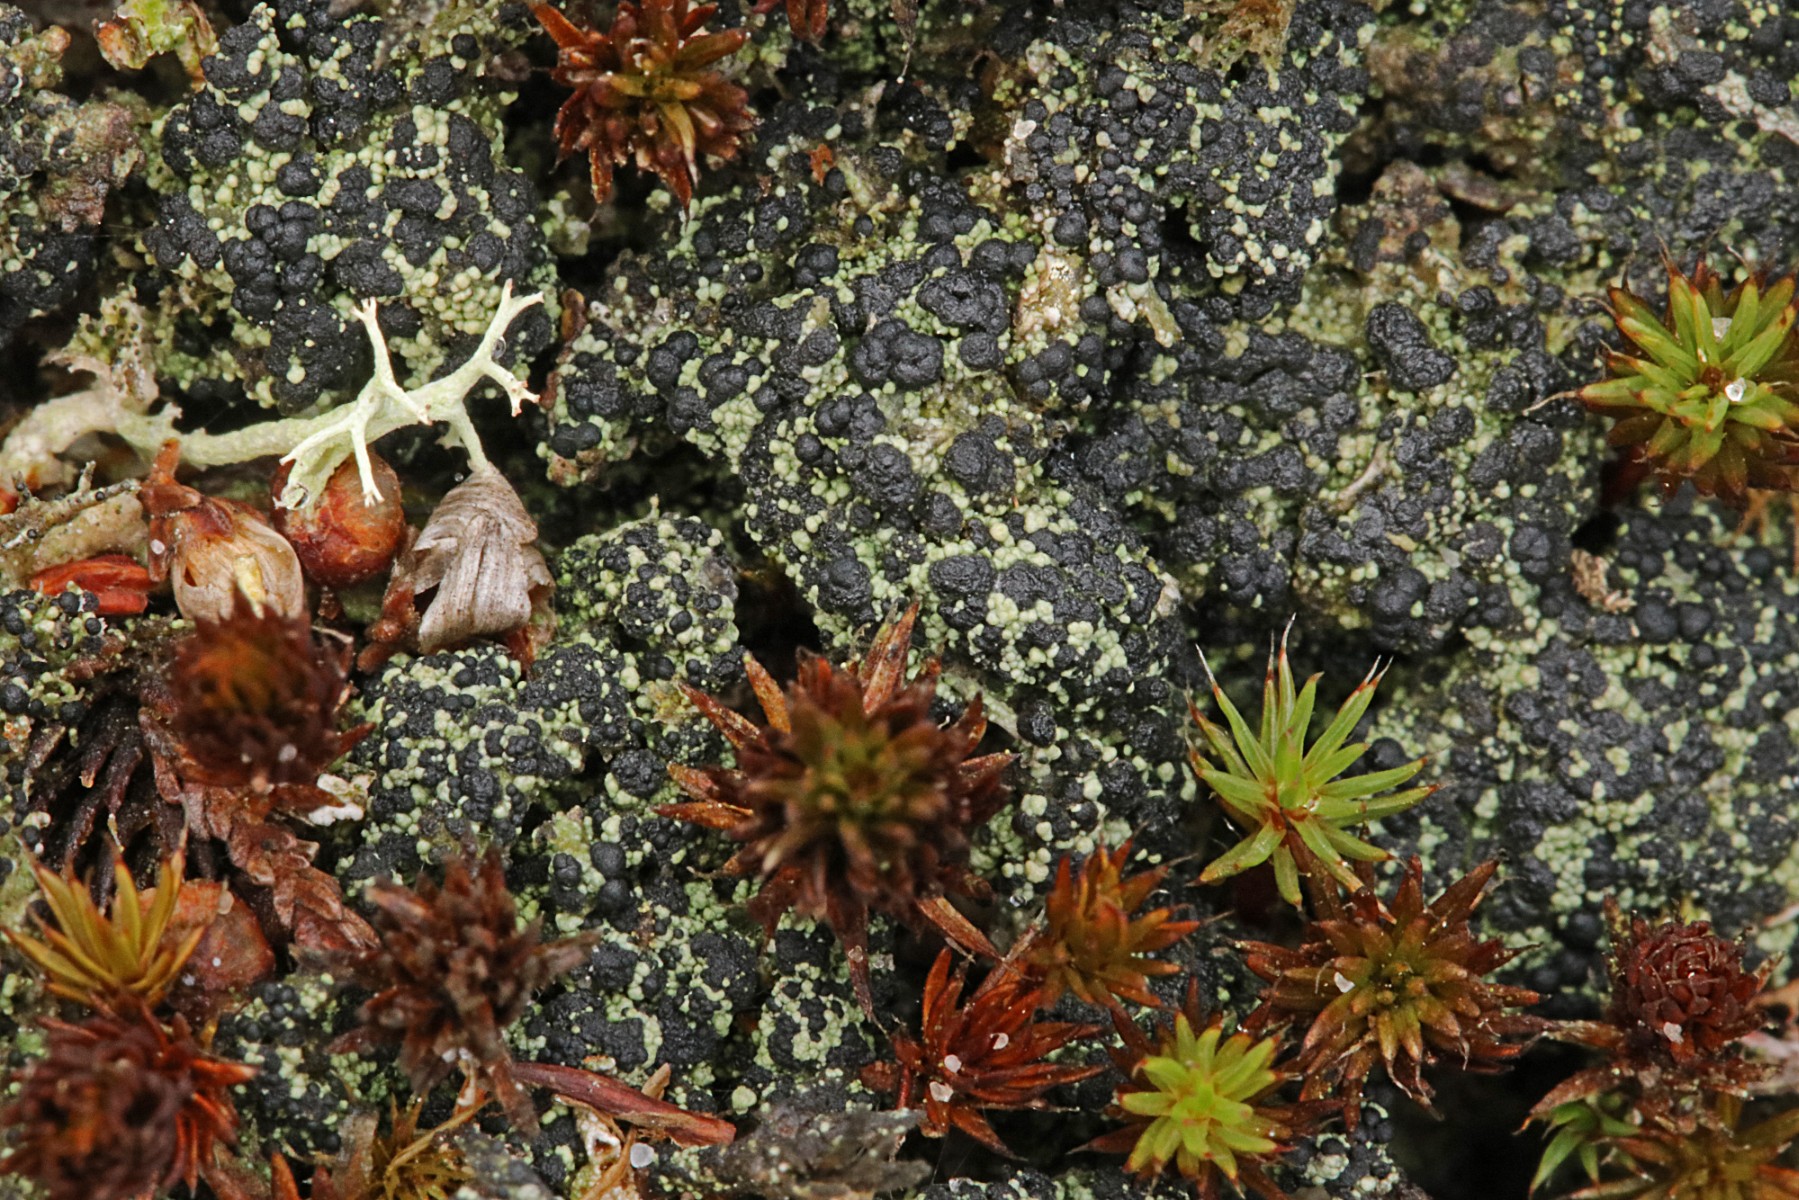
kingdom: Fungi
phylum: Ascomycota
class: Lecanoromycetes
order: Lecanorales
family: Byssolomataceae
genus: Micarea
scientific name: Micarea lignaria
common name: tørve-knaplav
